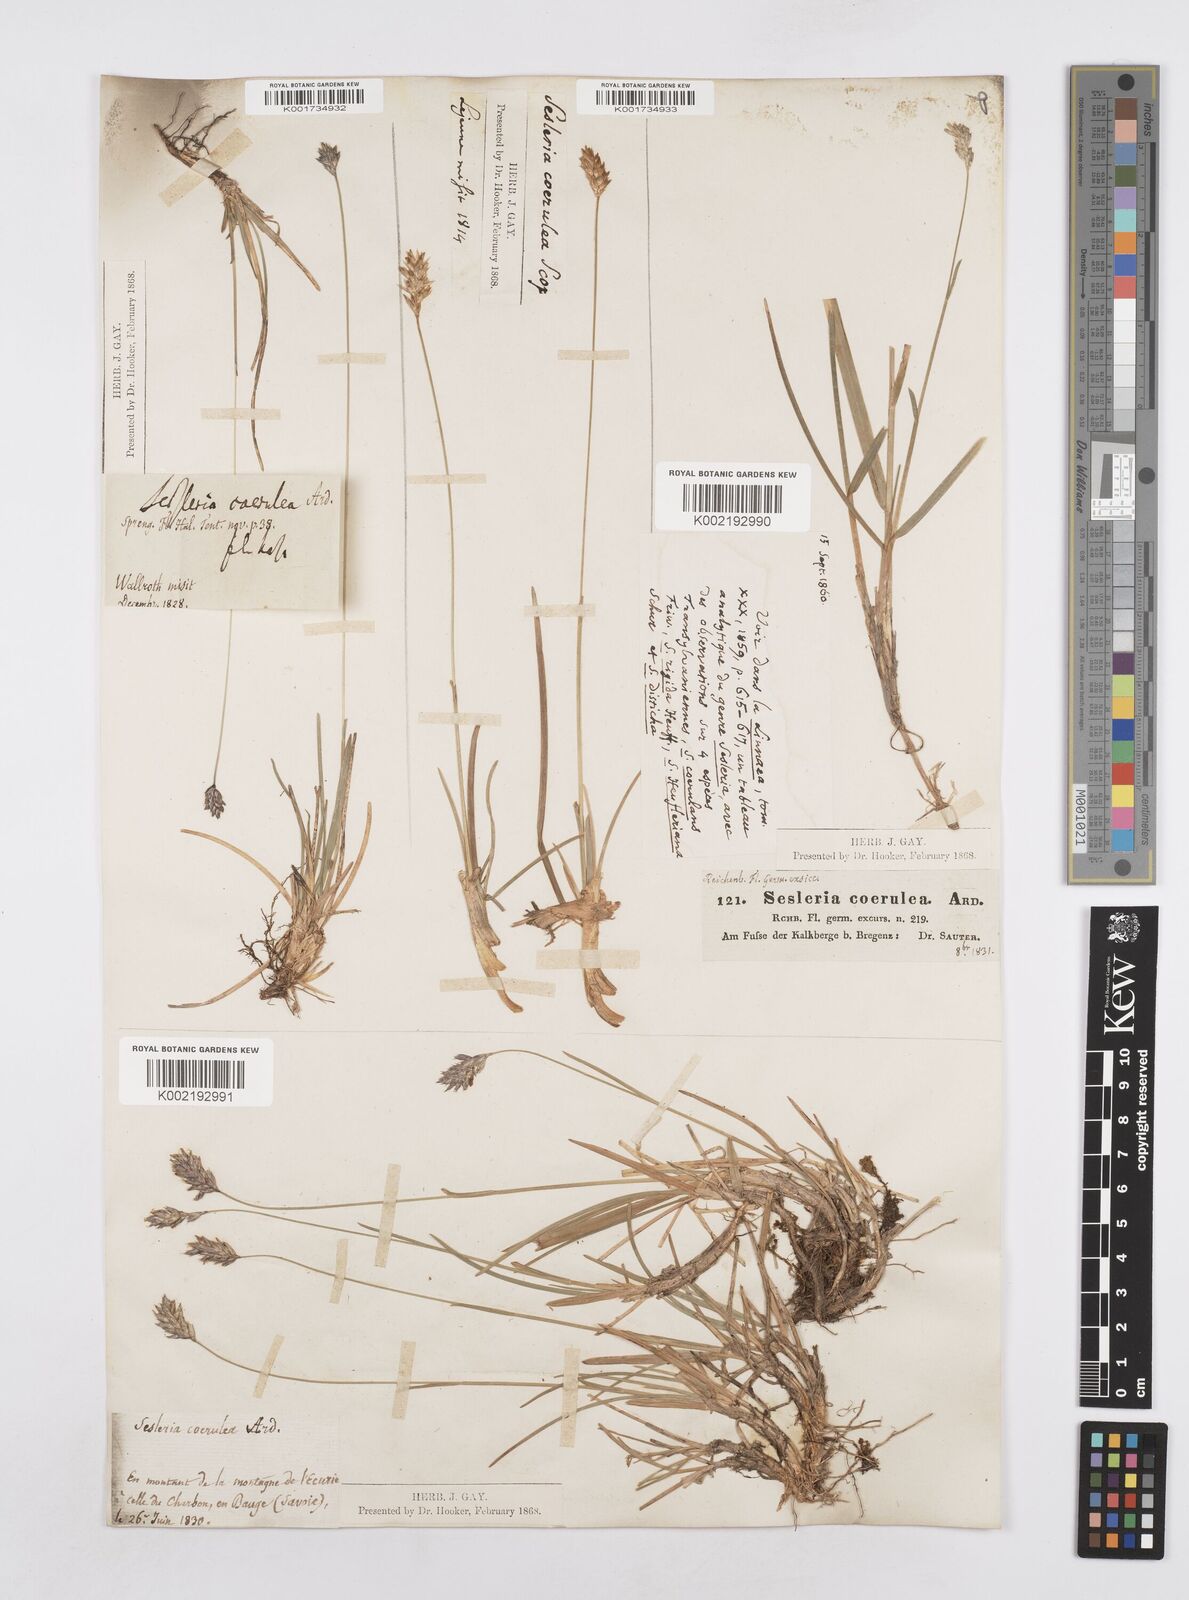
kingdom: Plantae
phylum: Tracheophyta
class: Liliopsida
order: Poales
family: Poaceae
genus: Sesleria
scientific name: Sesleria caerulea
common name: Blue moor-grass
